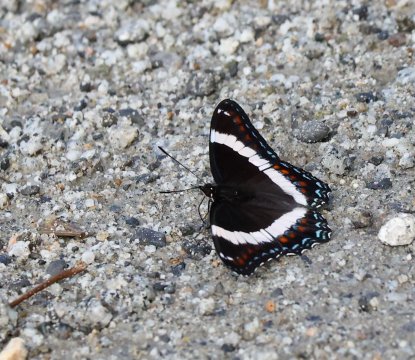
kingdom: Animalia
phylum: Arthropoda
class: Insecta
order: Lepidoptera
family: Nymphalidae
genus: Limenitis
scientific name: Limenitis arthemis
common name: Red-spotted Admiral
